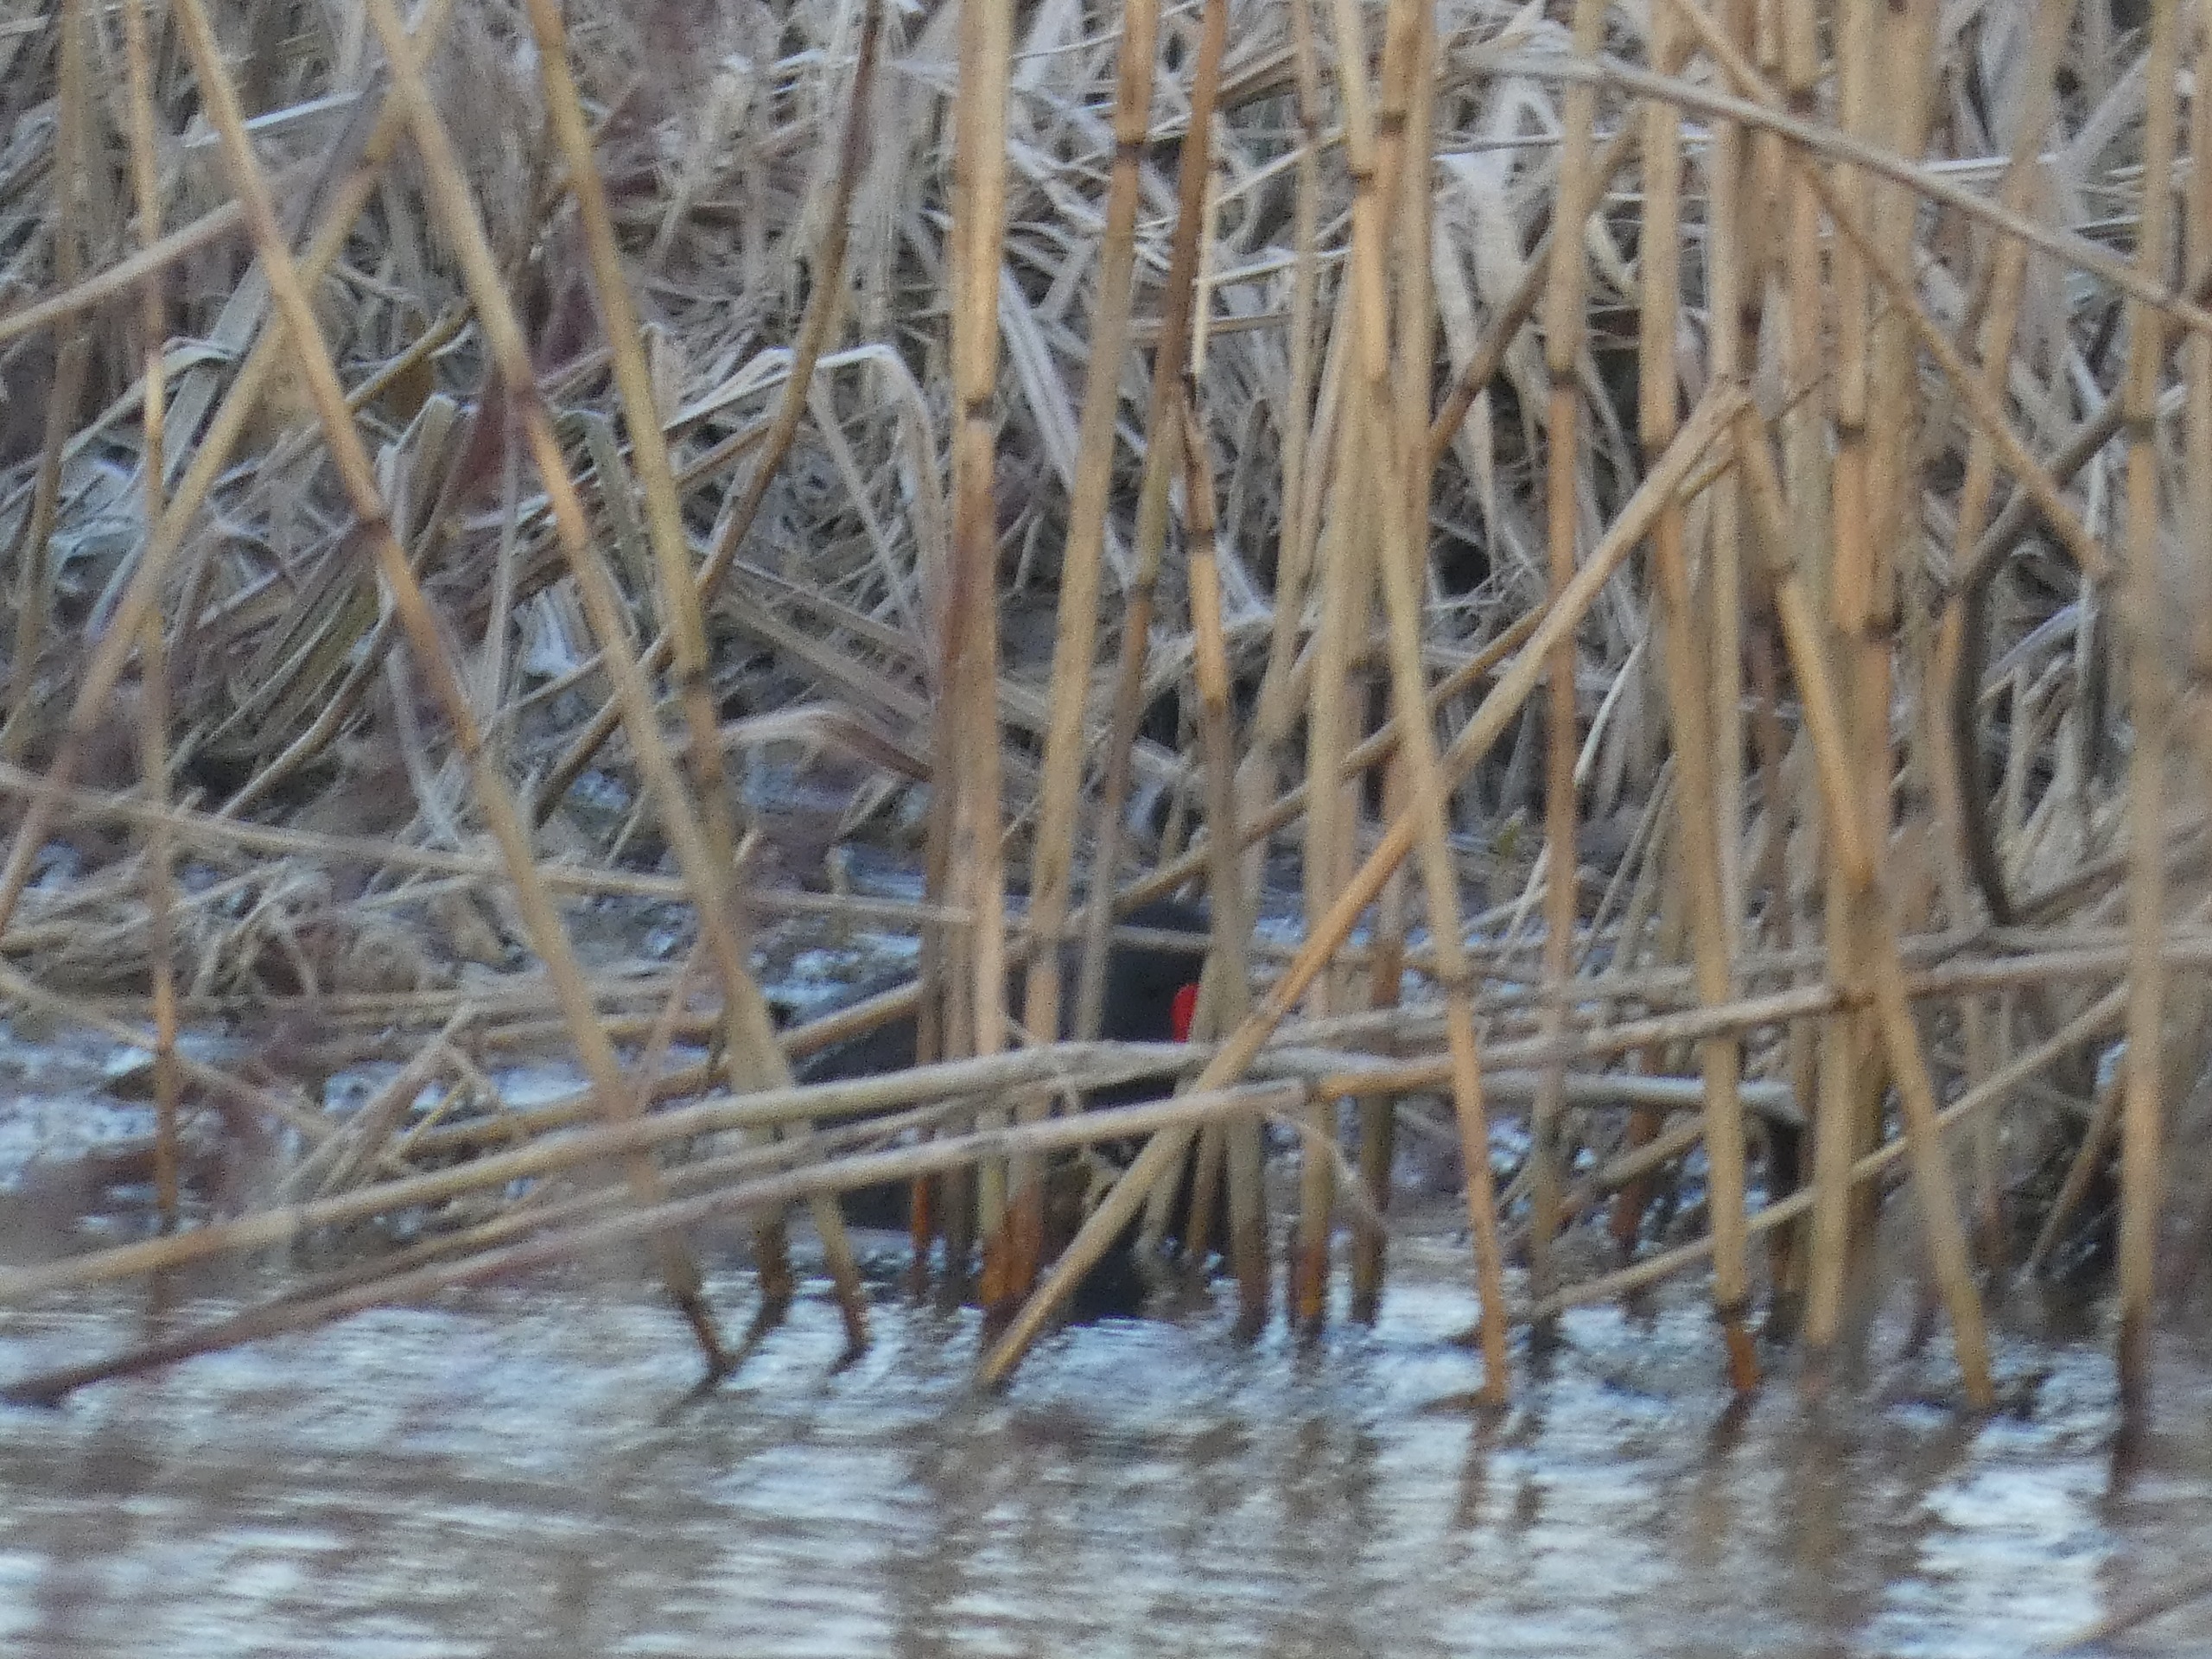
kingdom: Animalia
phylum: Chordata
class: Aves
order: Gruiformes
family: Rallidae
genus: Gallinula
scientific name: Gallinula chloropus
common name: Grønbenet rørhøne
